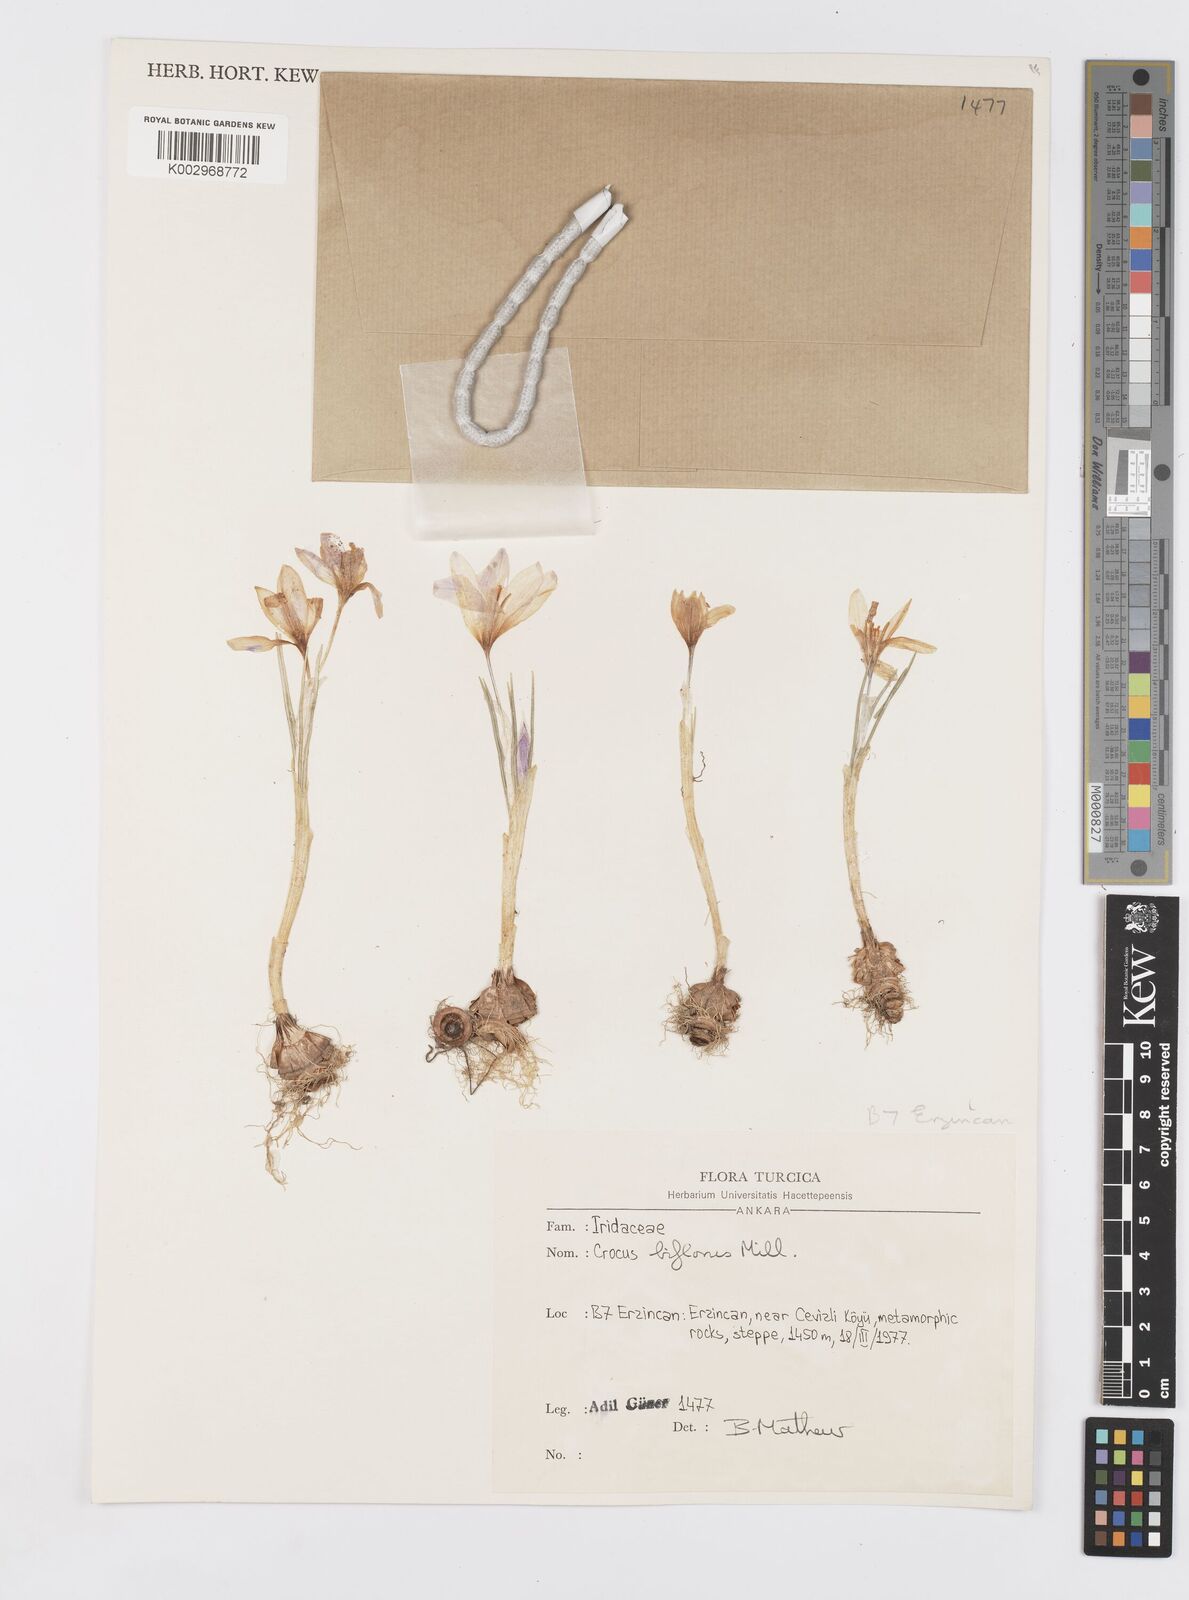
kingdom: Plantae
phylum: Tracheophyta
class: Liliopsida
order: Asparagales
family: Iridaceae
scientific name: Iridaceae
